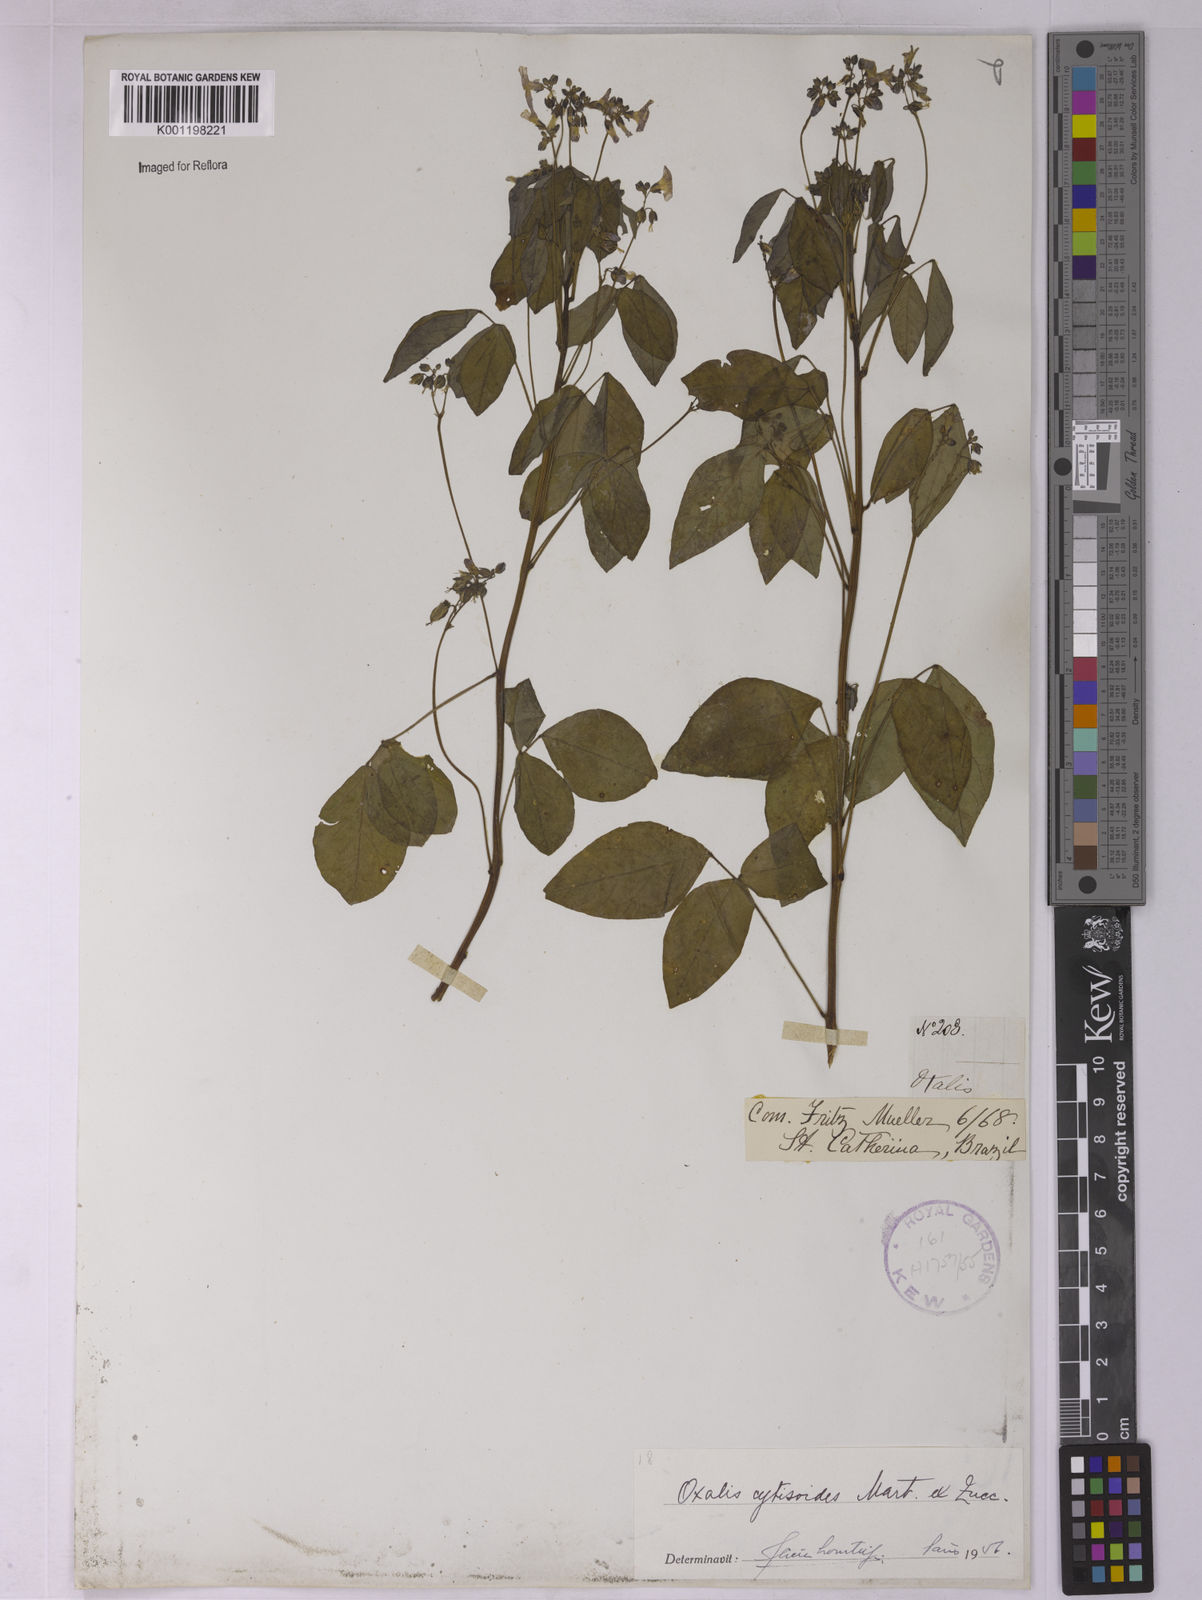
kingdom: Plantae
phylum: Tracheophyta
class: Magnoliopsida
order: Oxalidales
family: Oxalidaceae
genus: Oxalis
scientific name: Oxalis cytisoides
